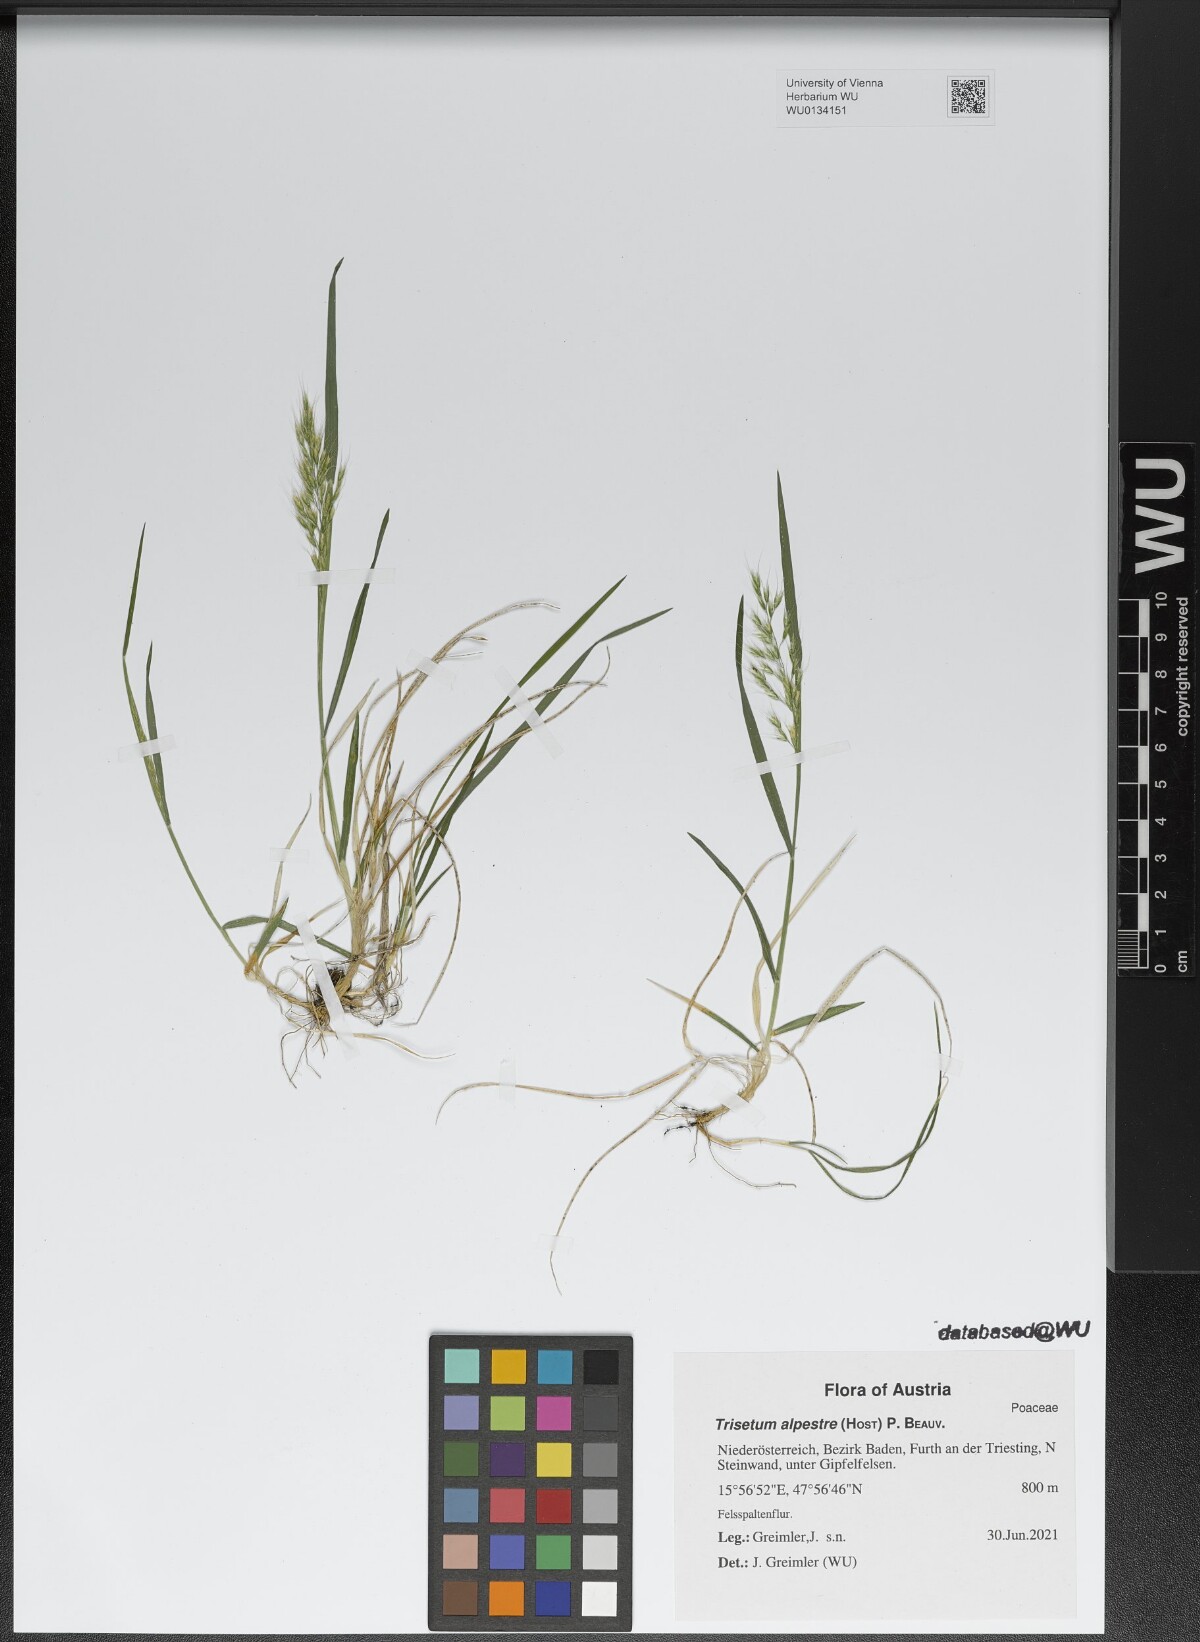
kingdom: Plantae
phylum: Tracheophyta
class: Liliopsida
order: Poales
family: Poaceae
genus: Trisetum
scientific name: Trisetum alpestre
